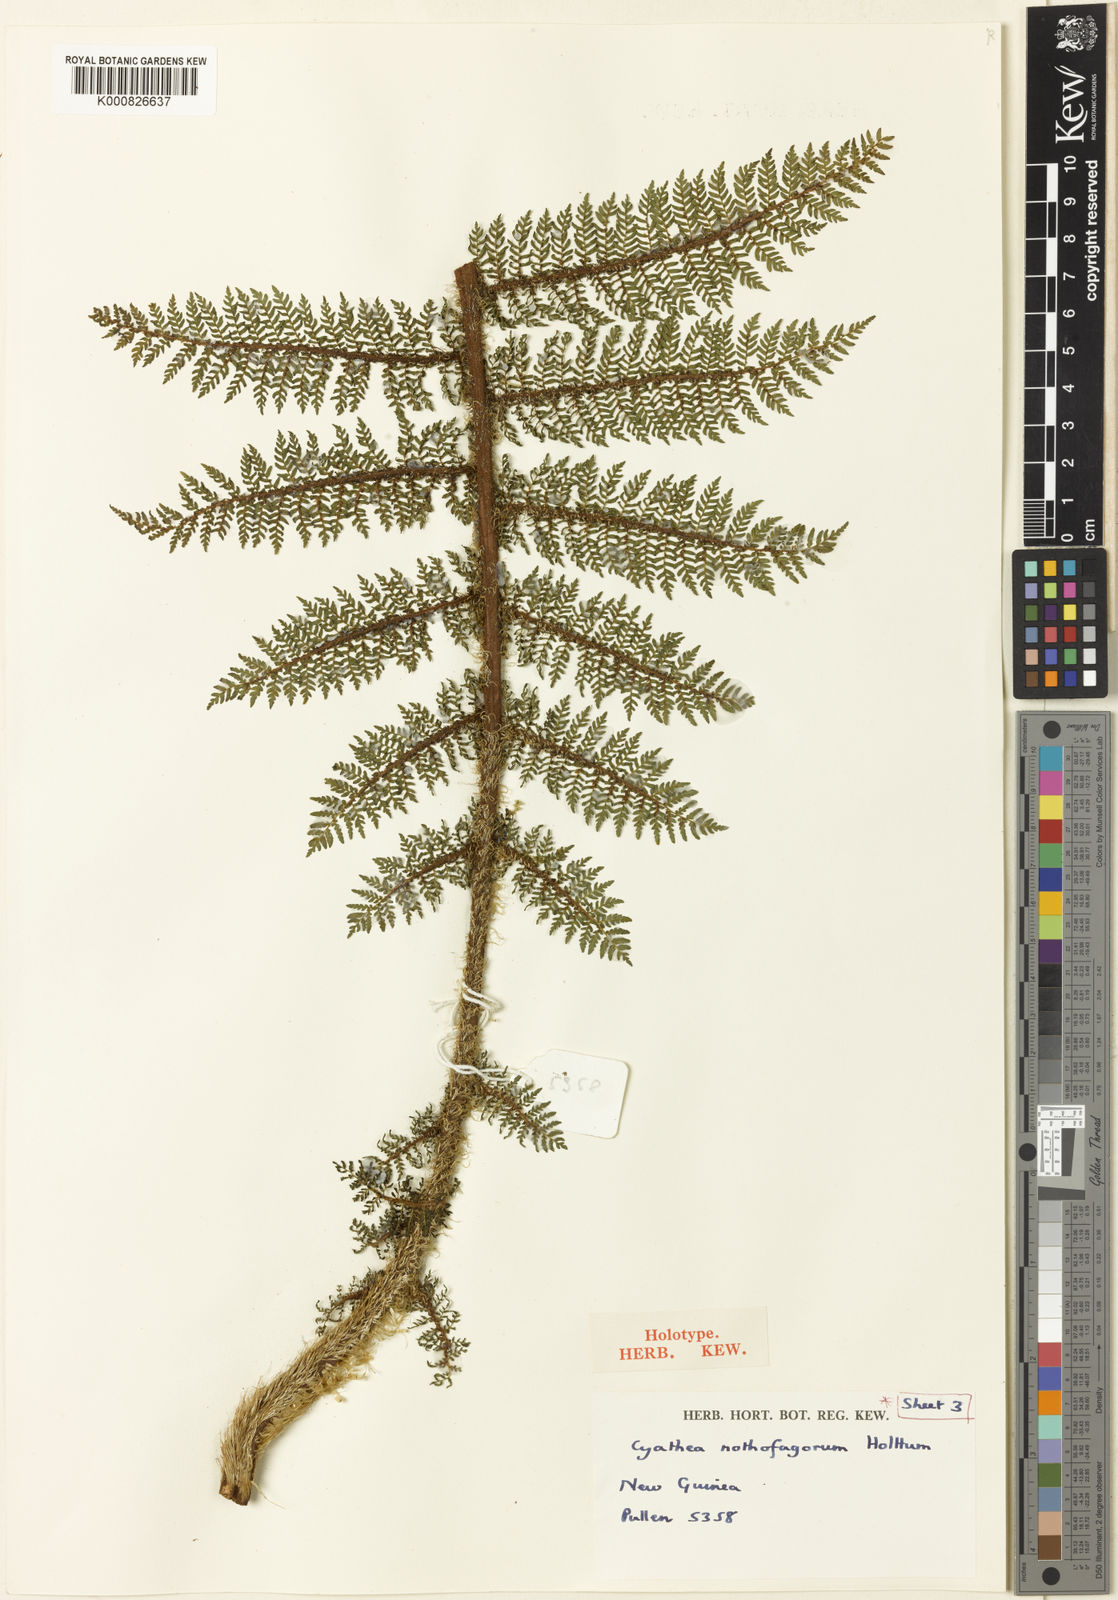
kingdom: Plantae
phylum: Tracheophyta
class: Polypodiopsida
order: Cyatheales
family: Cyatheaceae
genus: Alsophila
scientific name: Alsophila nothofagorum
